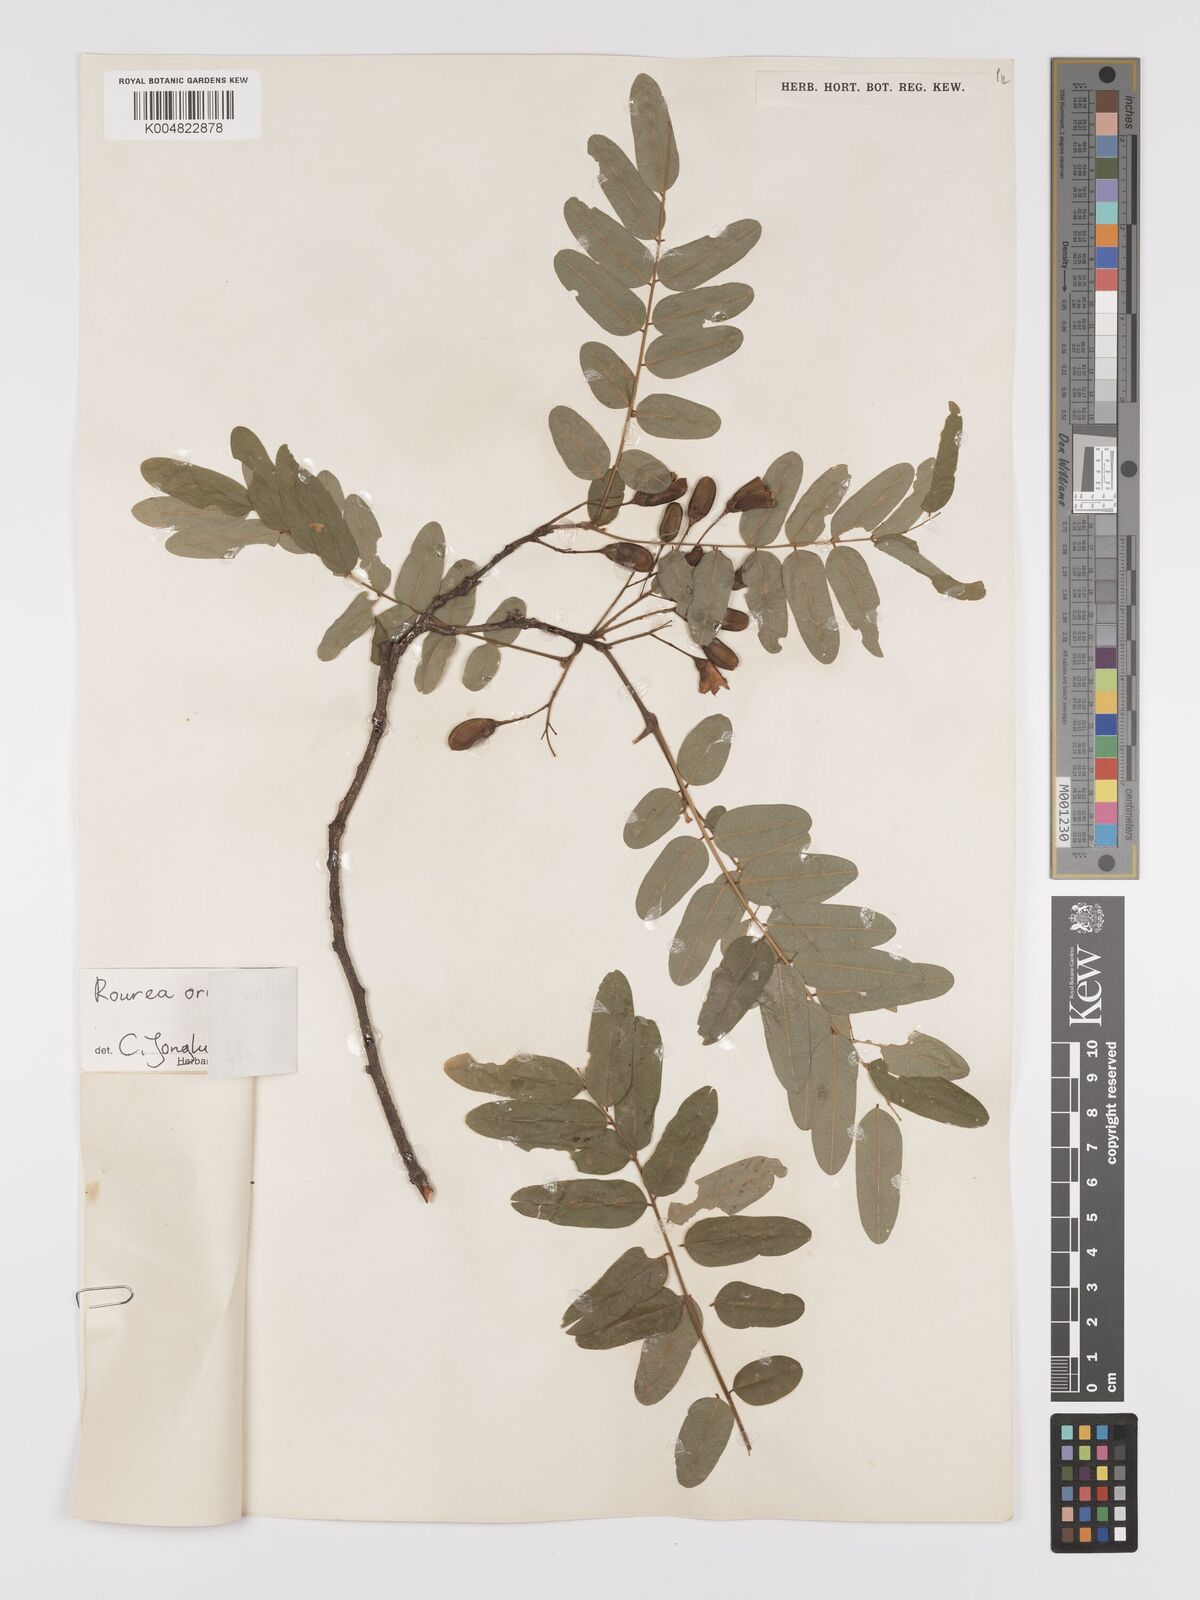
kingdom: Plantae
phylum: Tracheophyta
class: Magnoliopsida
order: Oxalidales
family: Connaraceae
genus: Rourea
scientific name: Rourea orientalis
